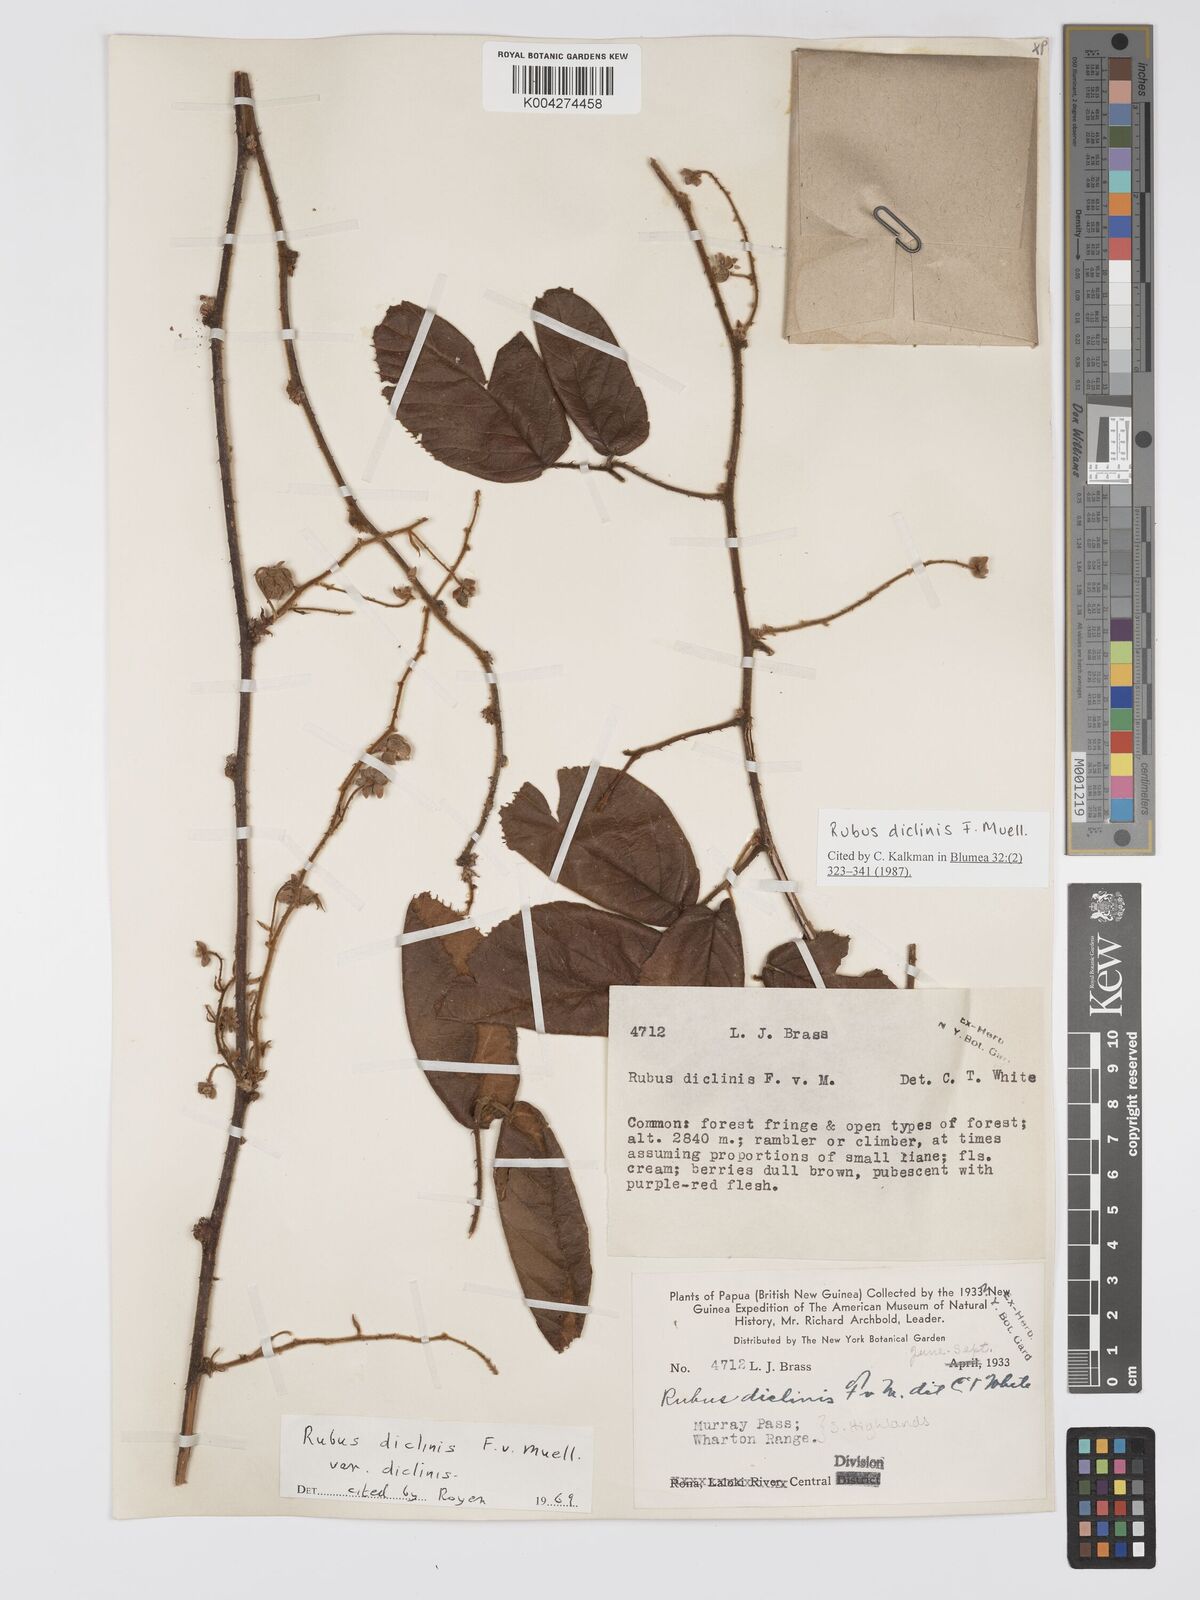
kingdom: Plantae
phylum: Tracheophyta
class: Magnoliopsida
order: Rosales
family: Rosaceae
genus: Rubus
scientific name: Rubus diclinis
